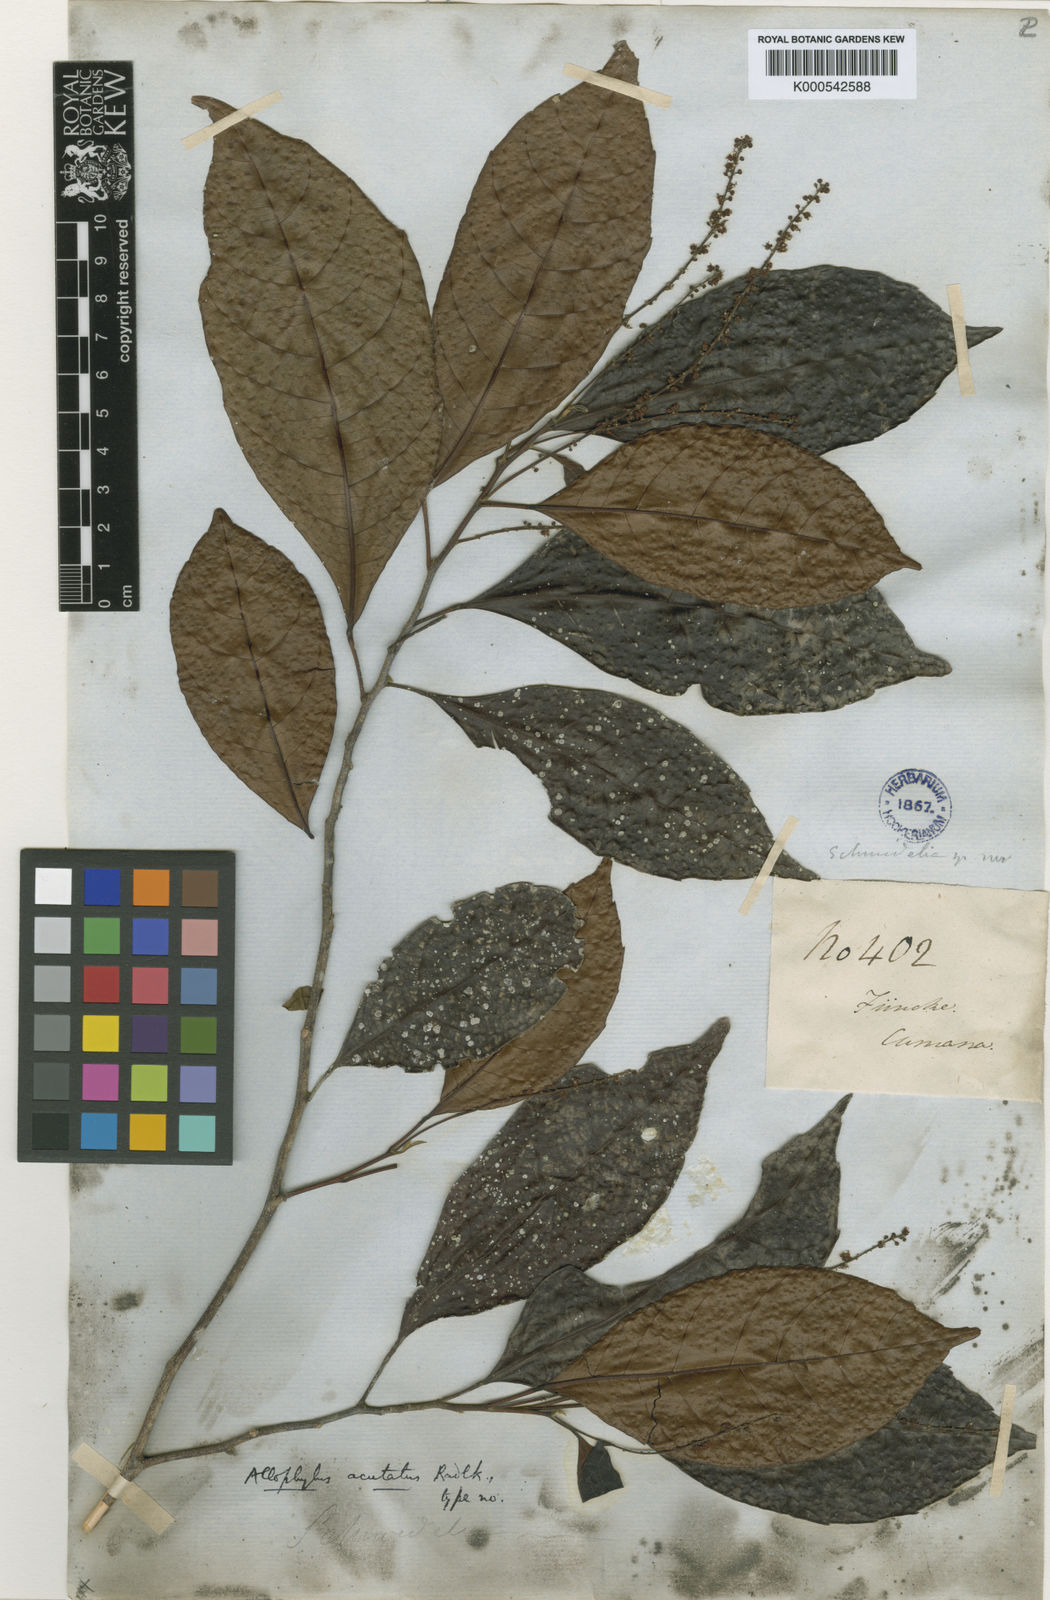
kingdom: Plantae
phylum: Tracheophyta
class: Magnoliopsida
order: Sapindales
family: Sapindaceae
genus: Allophylus
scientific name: Allophylus acutatus
